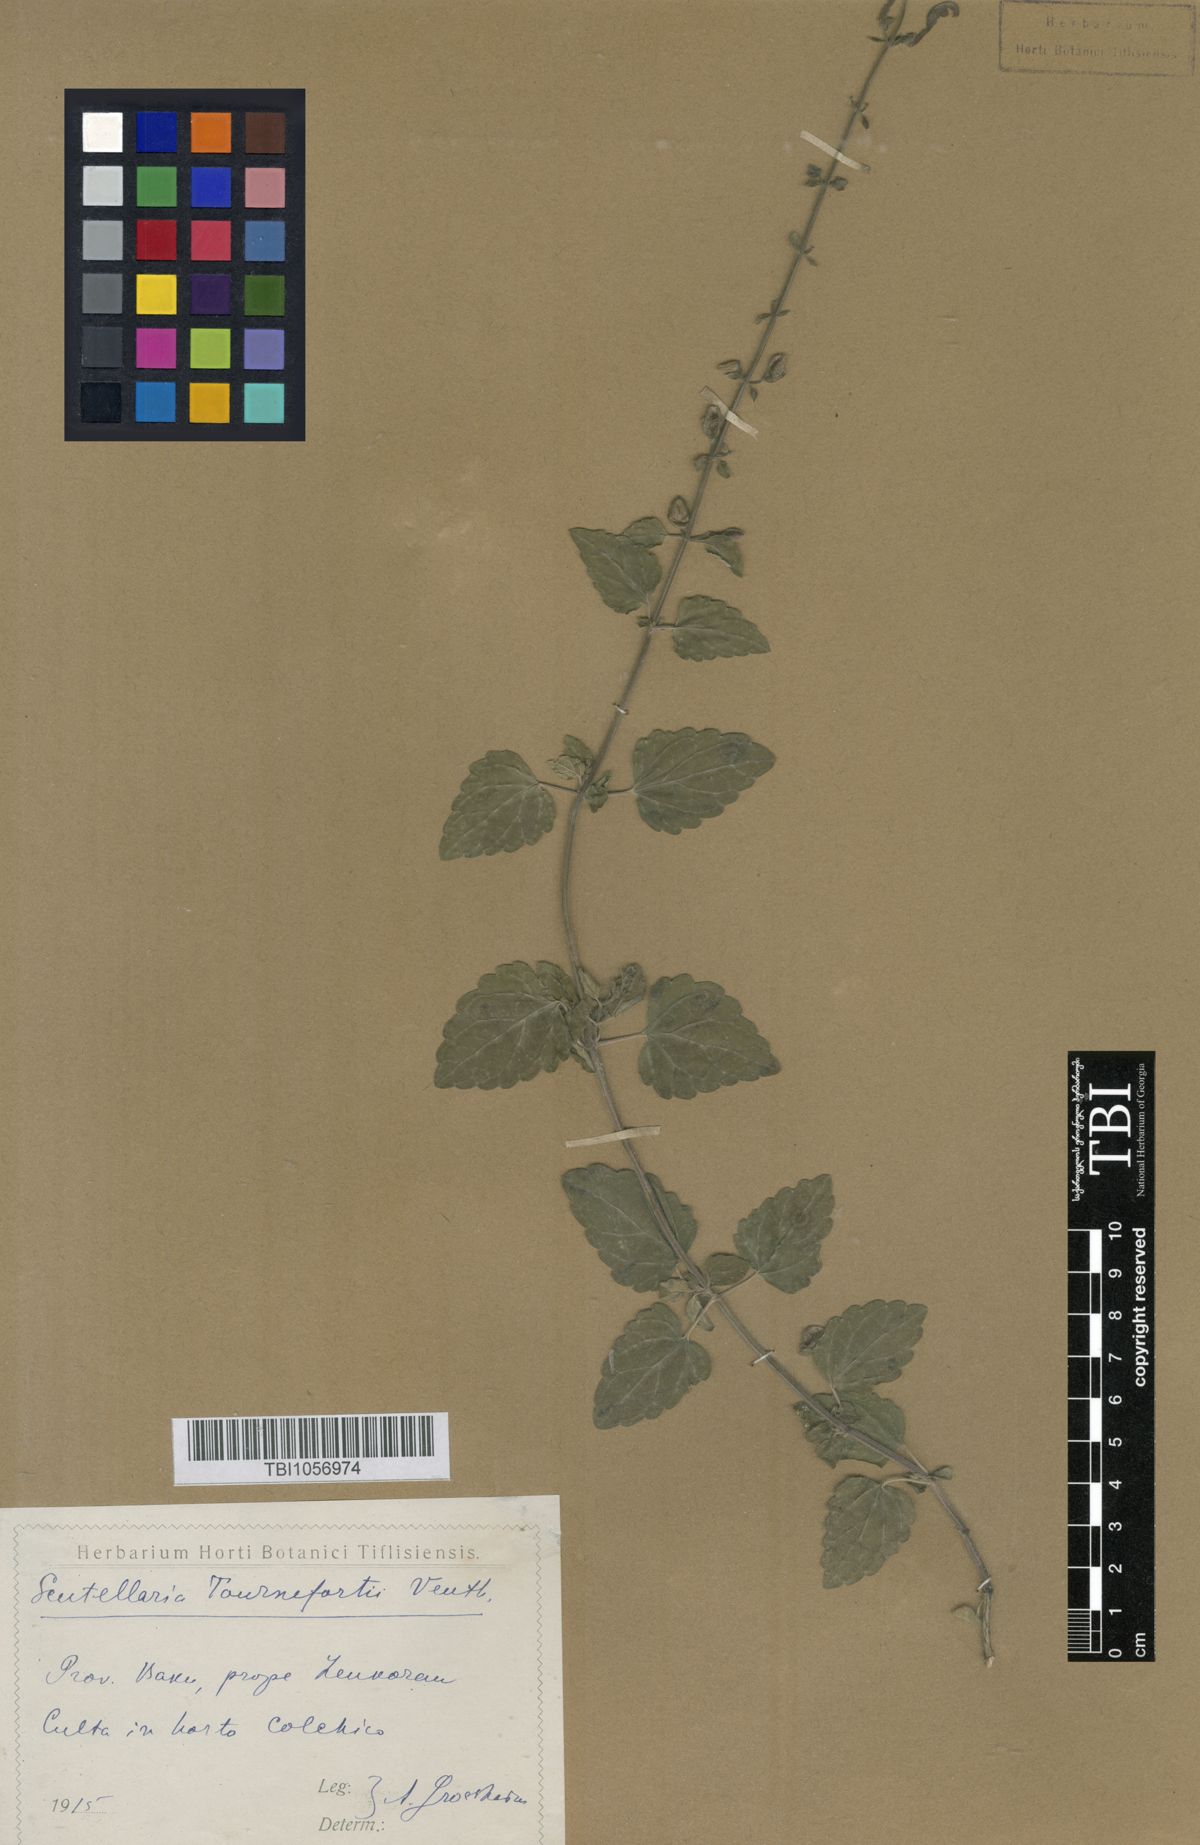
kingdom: Plantae
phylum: Tracheophyta
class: Magnoliopsida
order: Lamiales
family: Lamiaceae
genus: Scutellaria
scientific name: Scutellaria tournefortii
